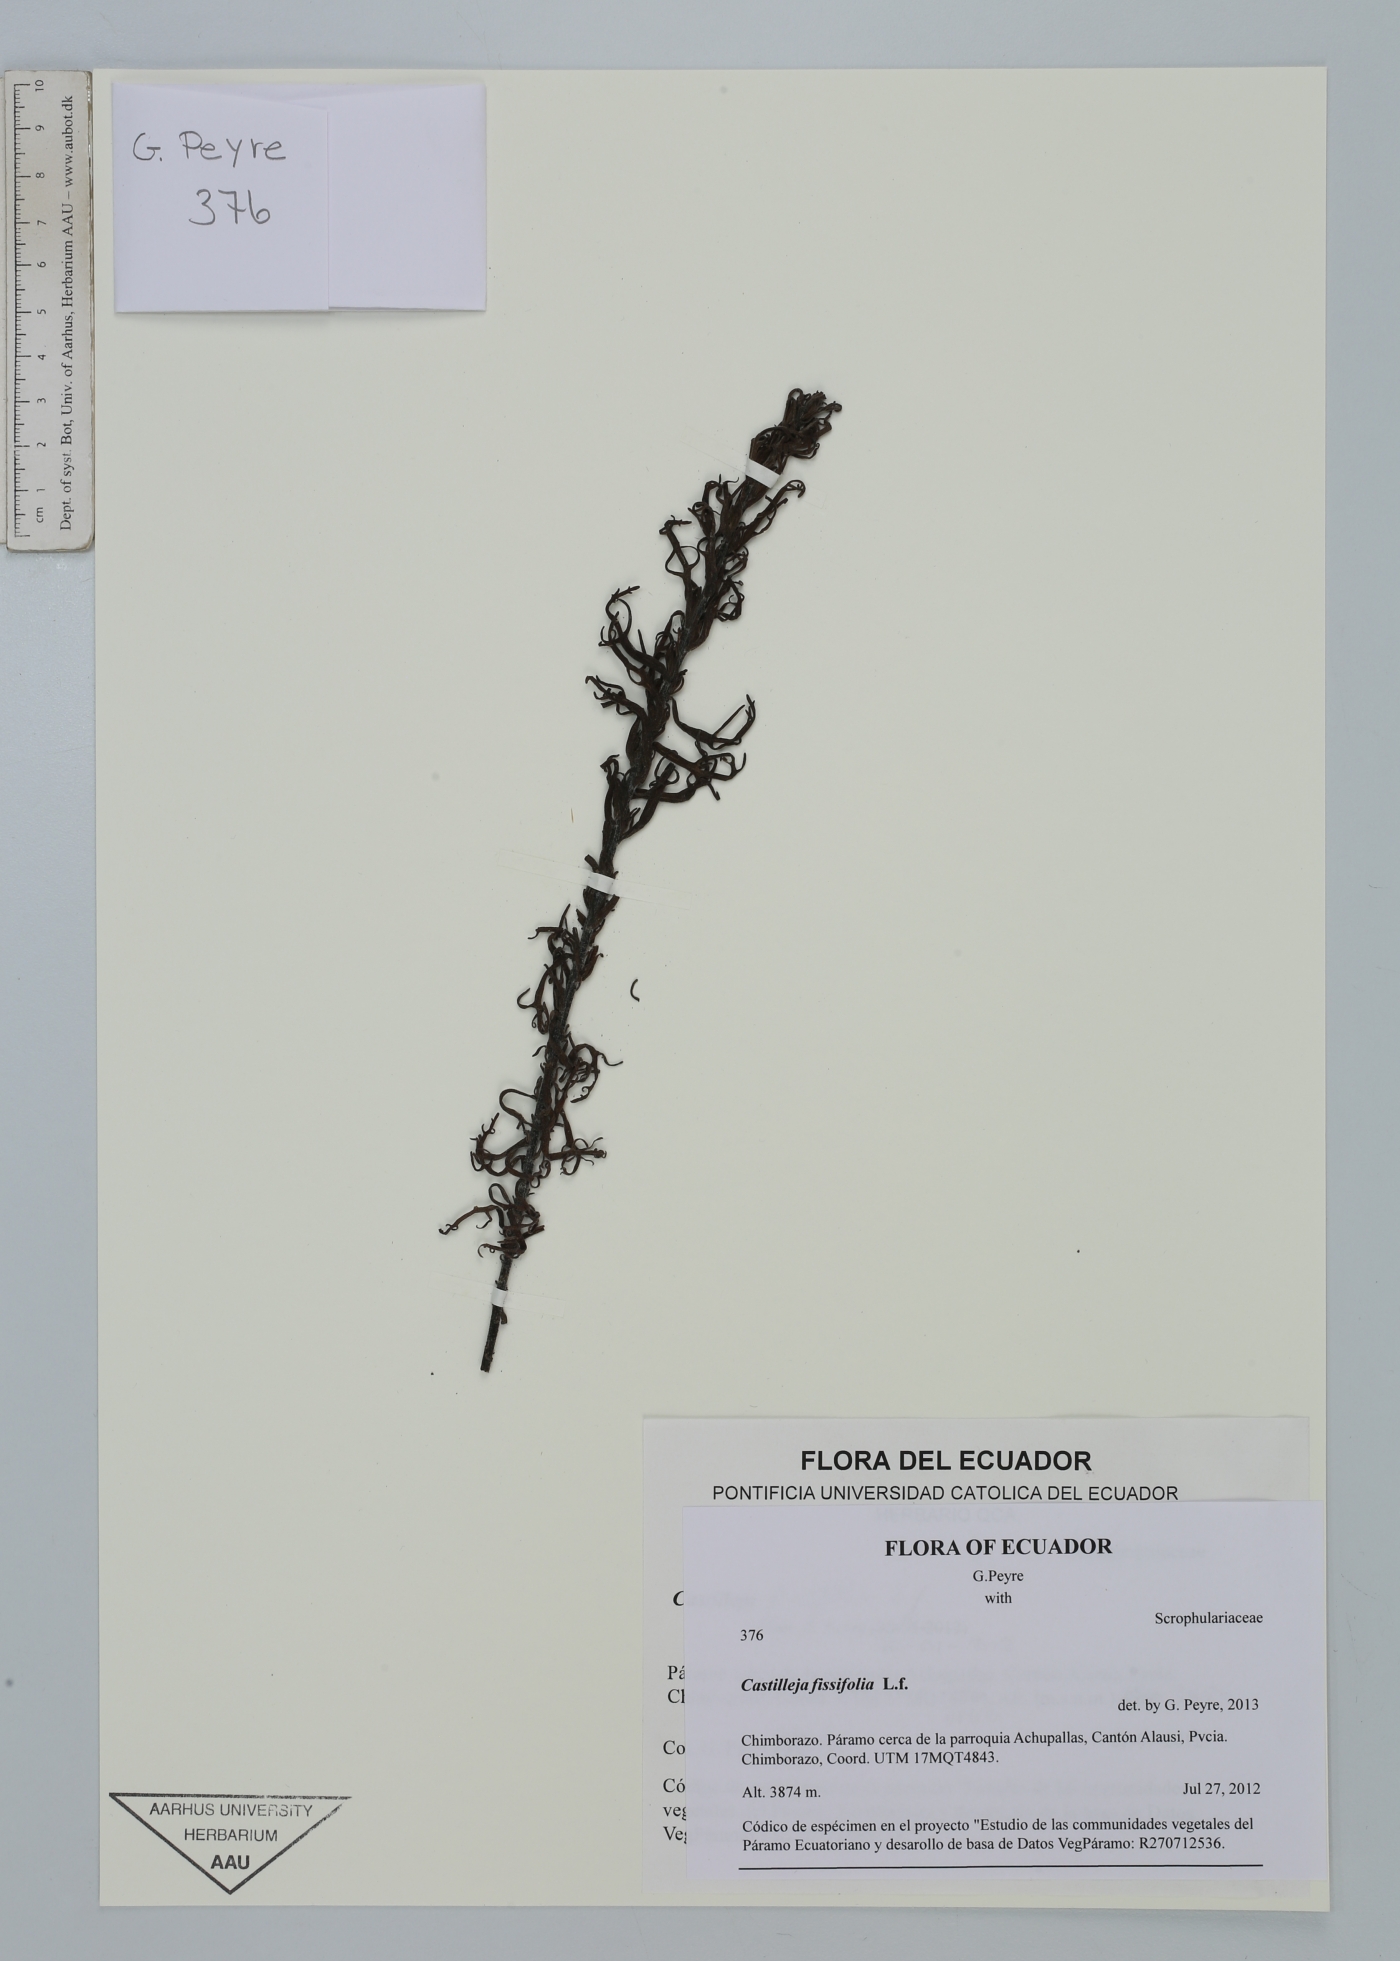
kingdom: Plantae
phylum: Tracheophyta
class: Magnoliopsida
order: Lamiales
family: Orobanchaceae
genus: Castilleja
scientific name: Castilleja fissifolia
